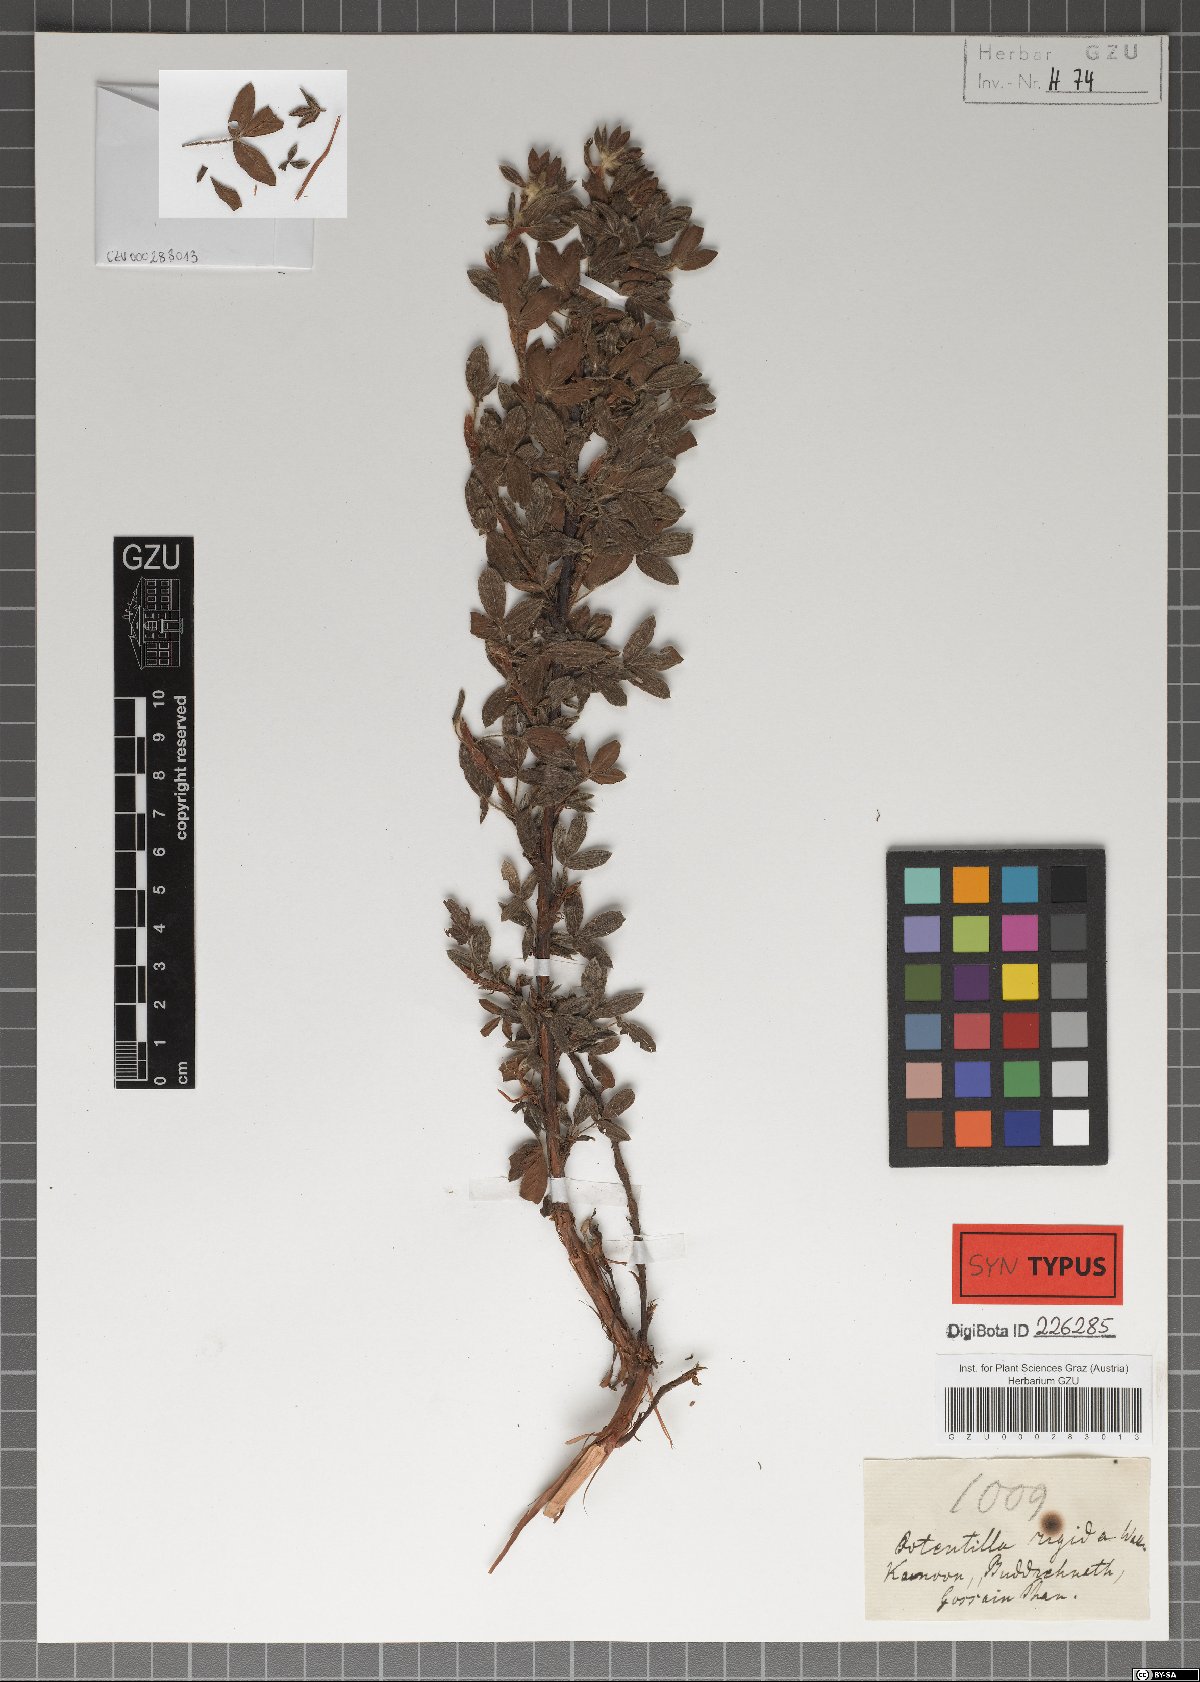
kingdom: Plantae
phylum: Tracheophyta
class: Magnoliopsida
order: Rosales
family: Rosaceae
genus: Dasiphora
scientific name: Dasiphora fruticosa
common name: Shrubby cinquefoil
